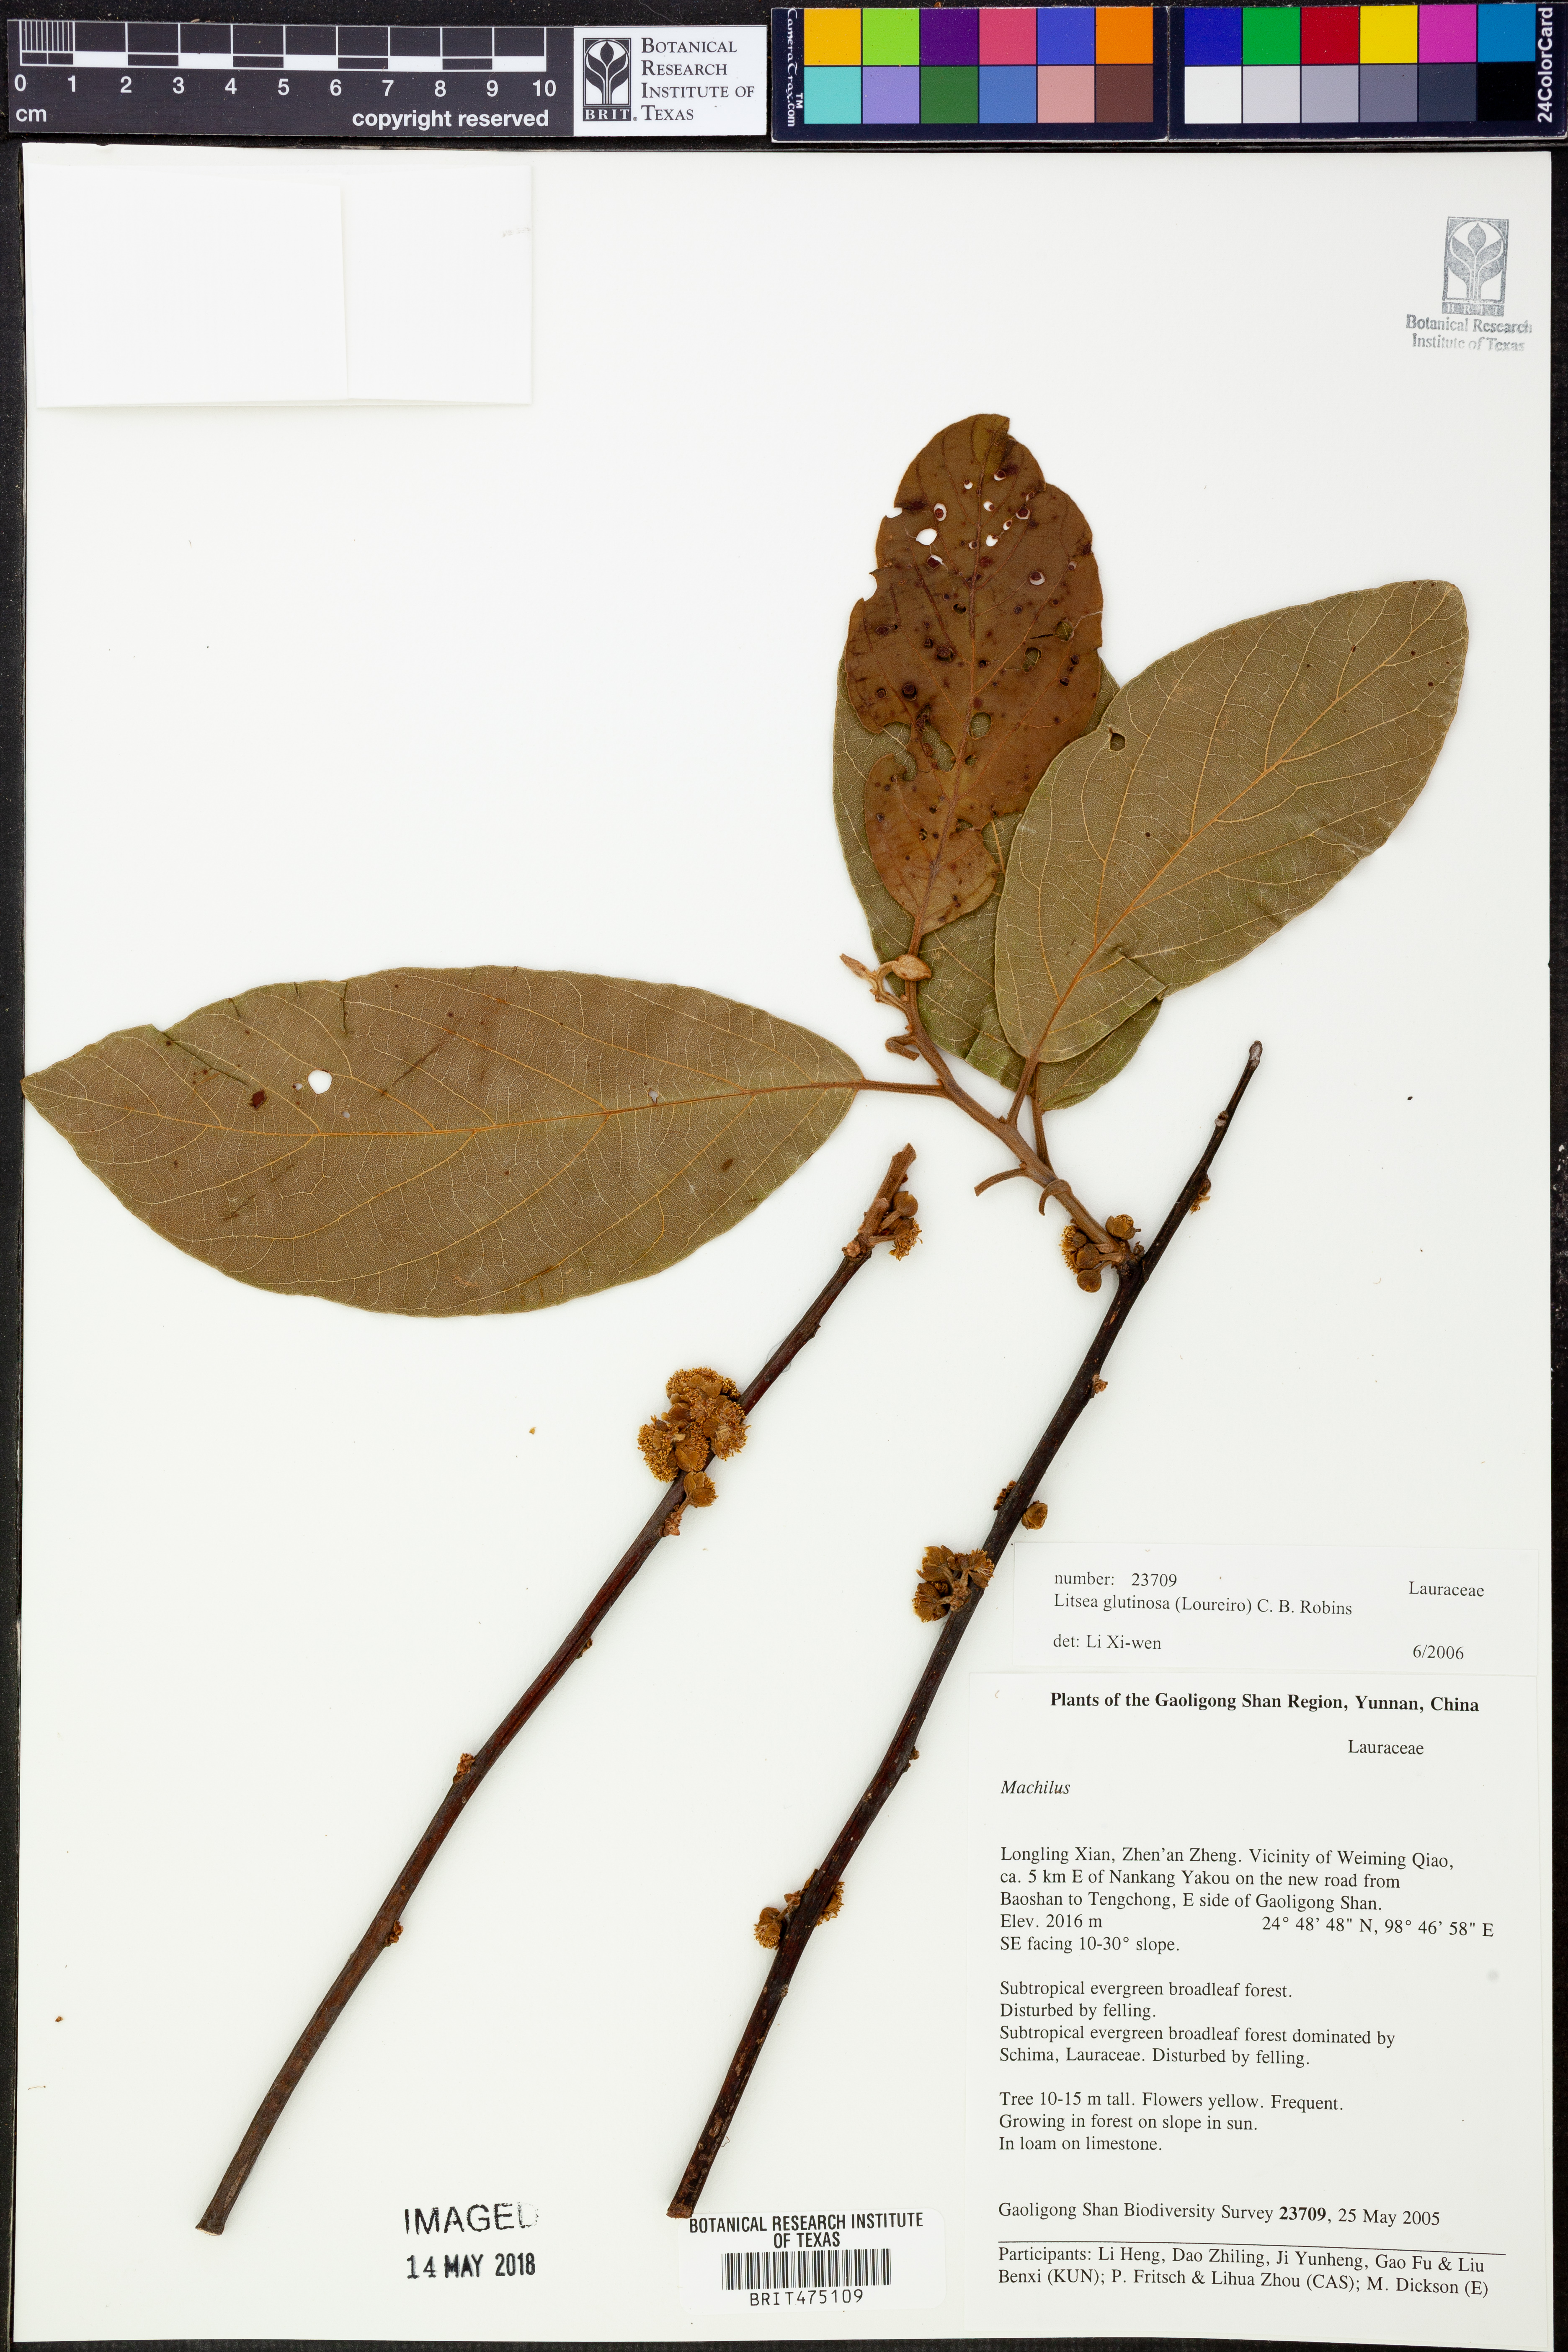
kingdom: Plantae
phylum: Tracheophyta
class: Magnoliopsida
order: Laurales
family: Lauraceae
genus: Litsea
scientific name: Litsea glutinosa
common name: Indian-laurel
